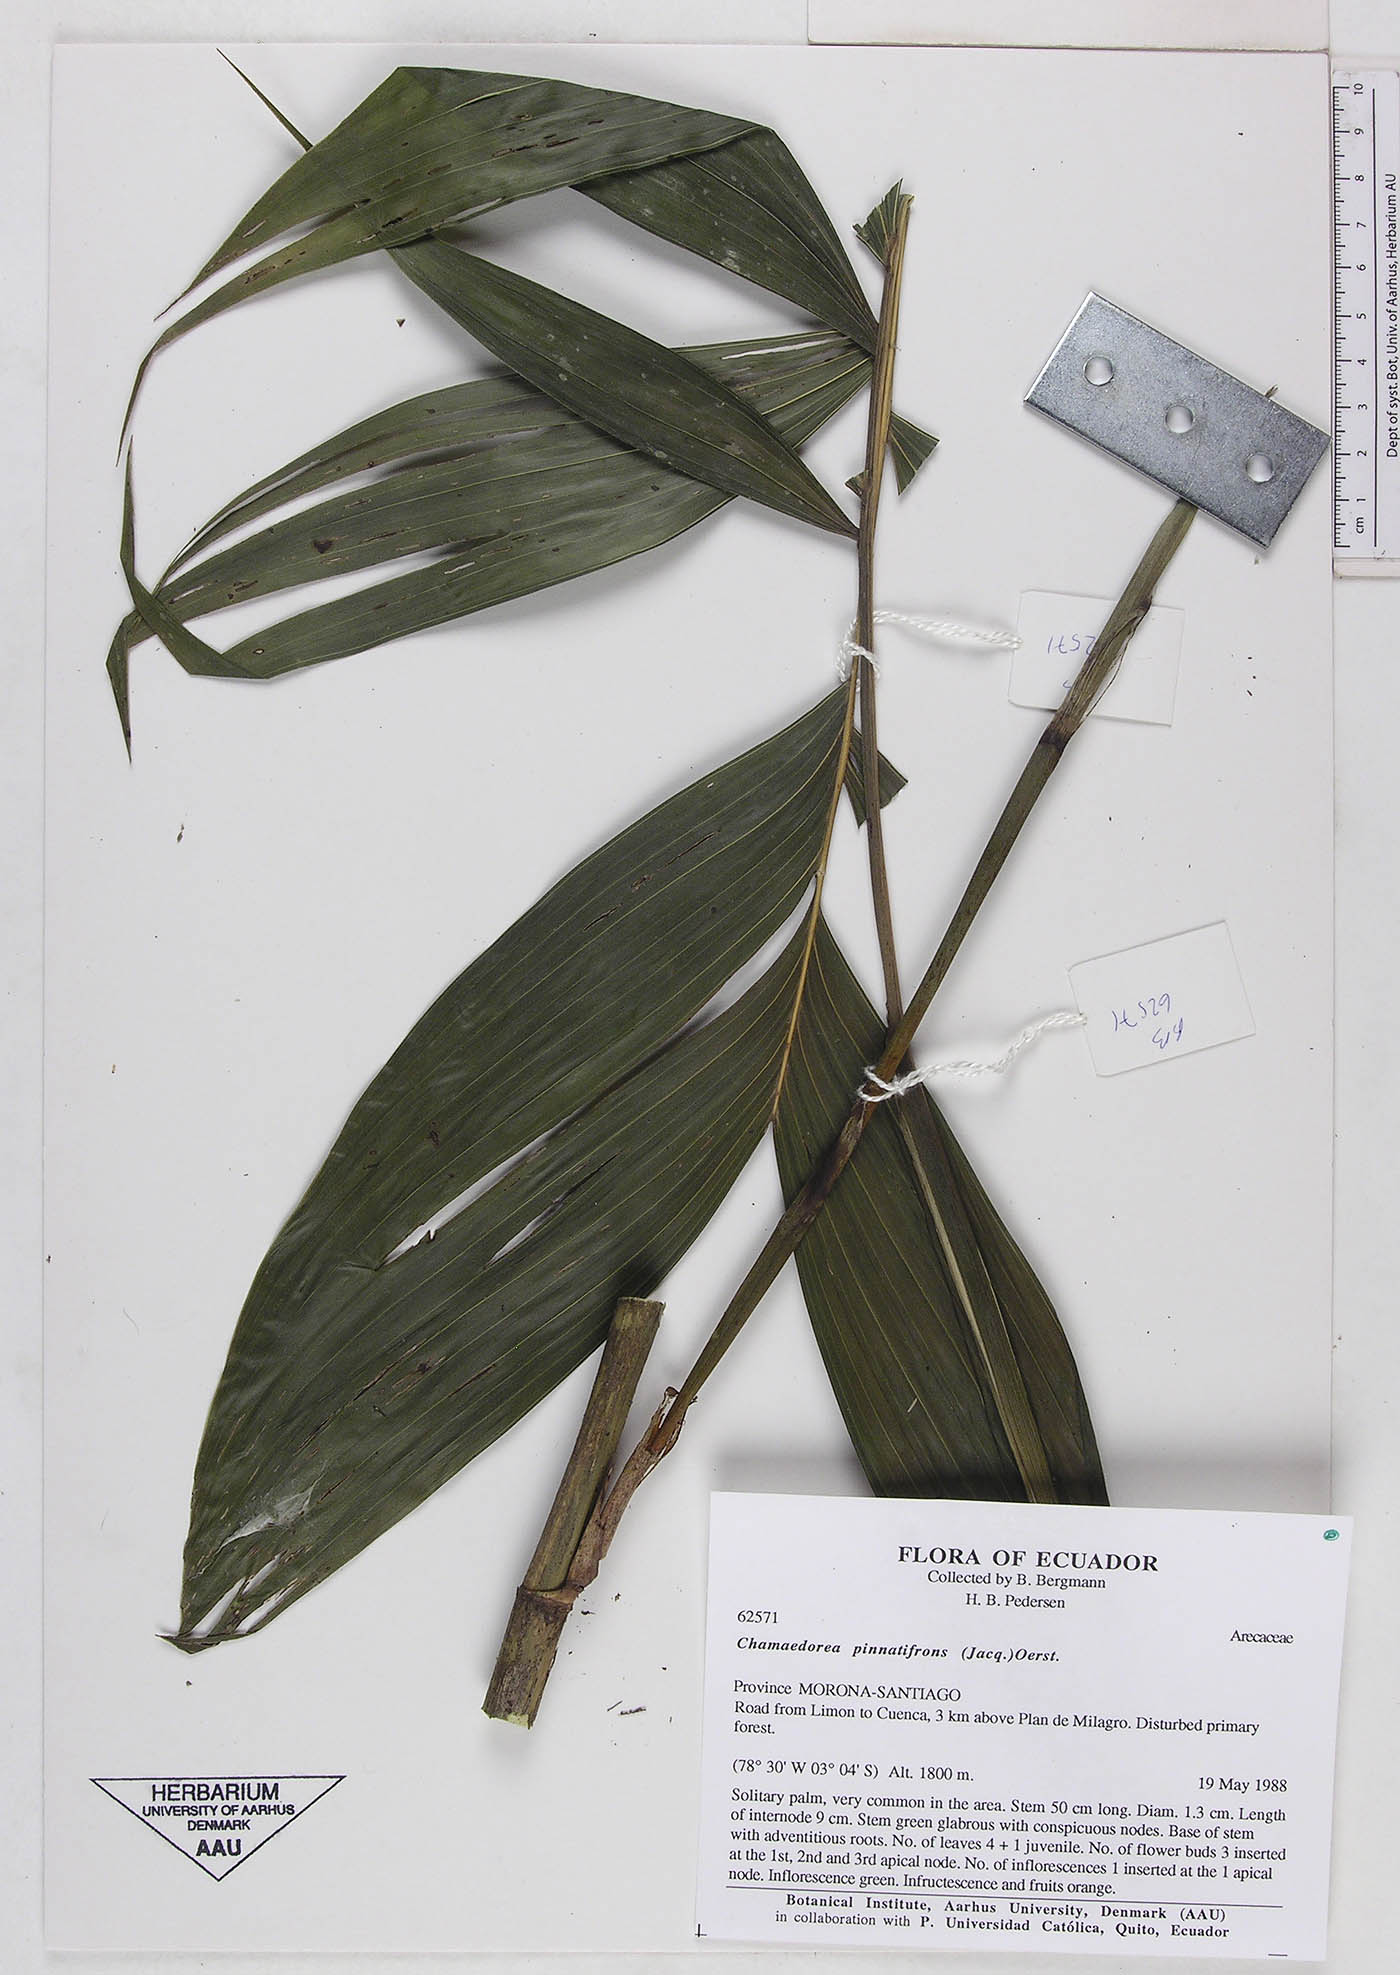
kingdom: Plantae
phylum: Tracheophyta
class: Liliopsida
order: Arecales
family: Arecaceae
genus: Chamaedorea
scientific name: Chamaedorea pinnatifrons
